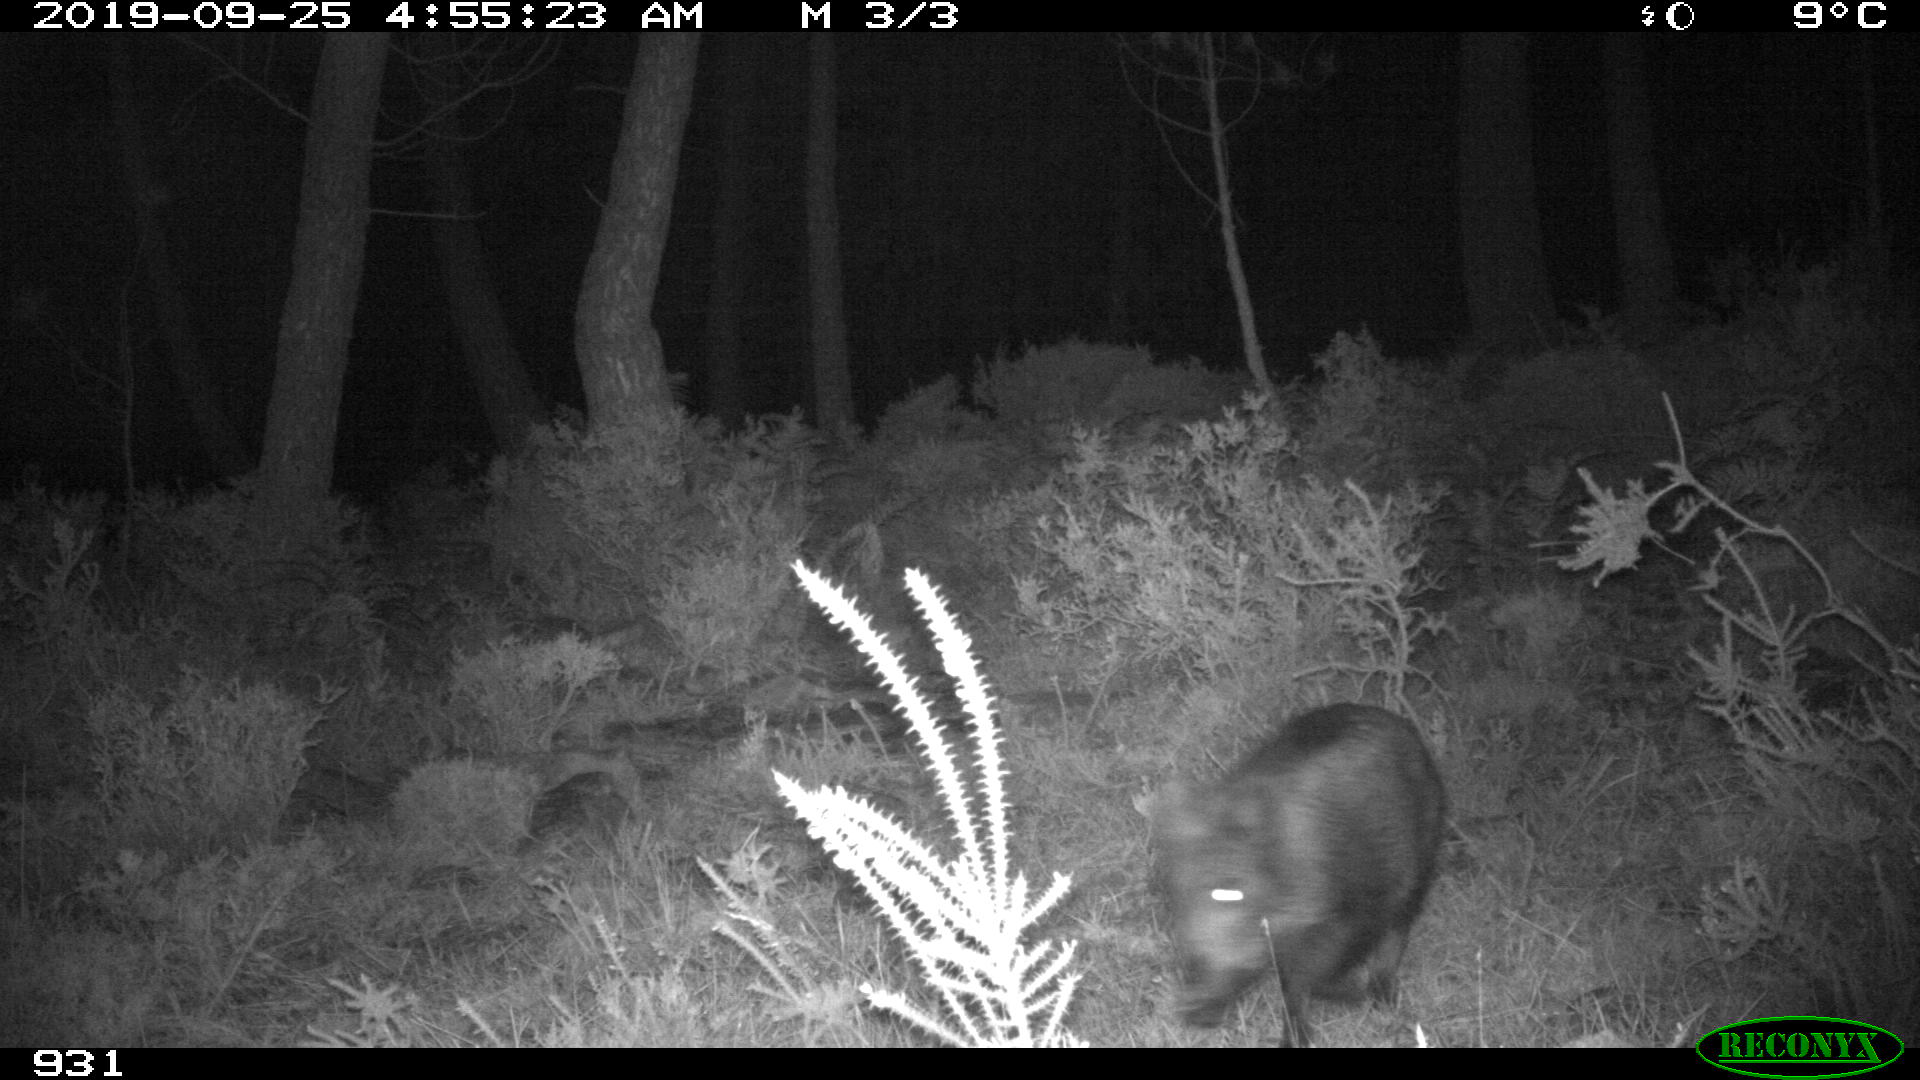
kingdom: Animalia
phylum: Chordata
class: Mammalia
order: Artiodactyla
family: Suidae
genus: Sus
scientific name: Sus scrofa
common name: Wild boar
